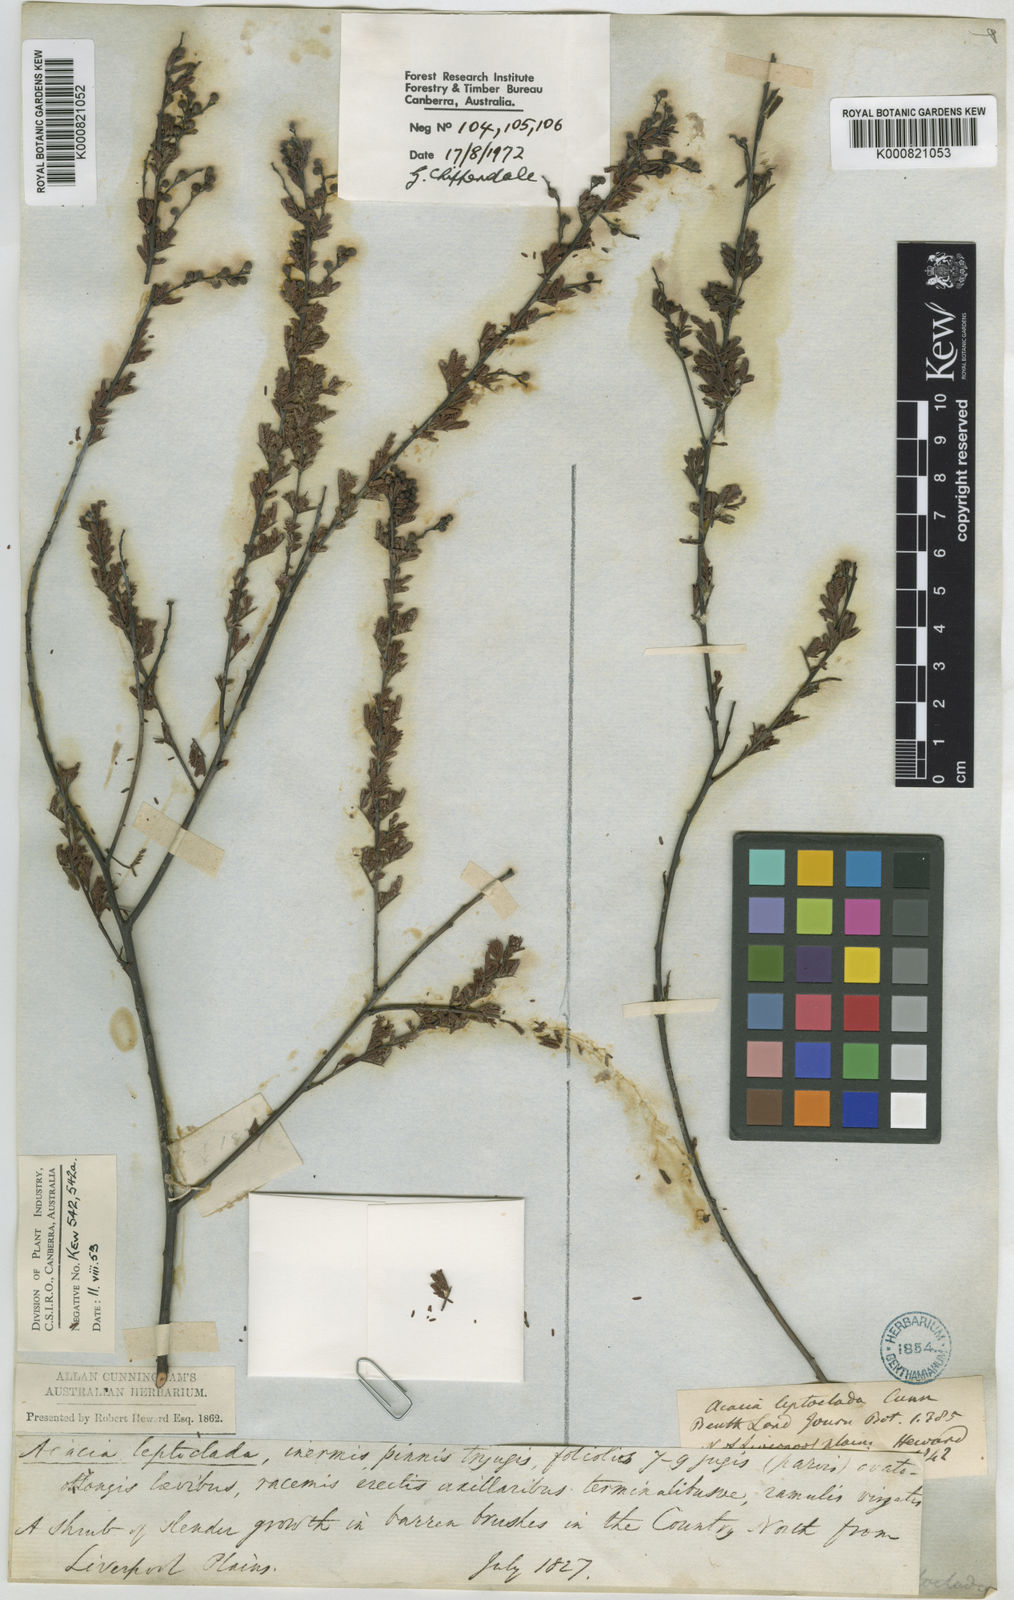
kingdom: Plantae
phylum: Tracheophyta
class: Magnoliopsida
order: Fabales
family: Fabaceae
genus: Acacia
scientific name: Acacia leptoclada
